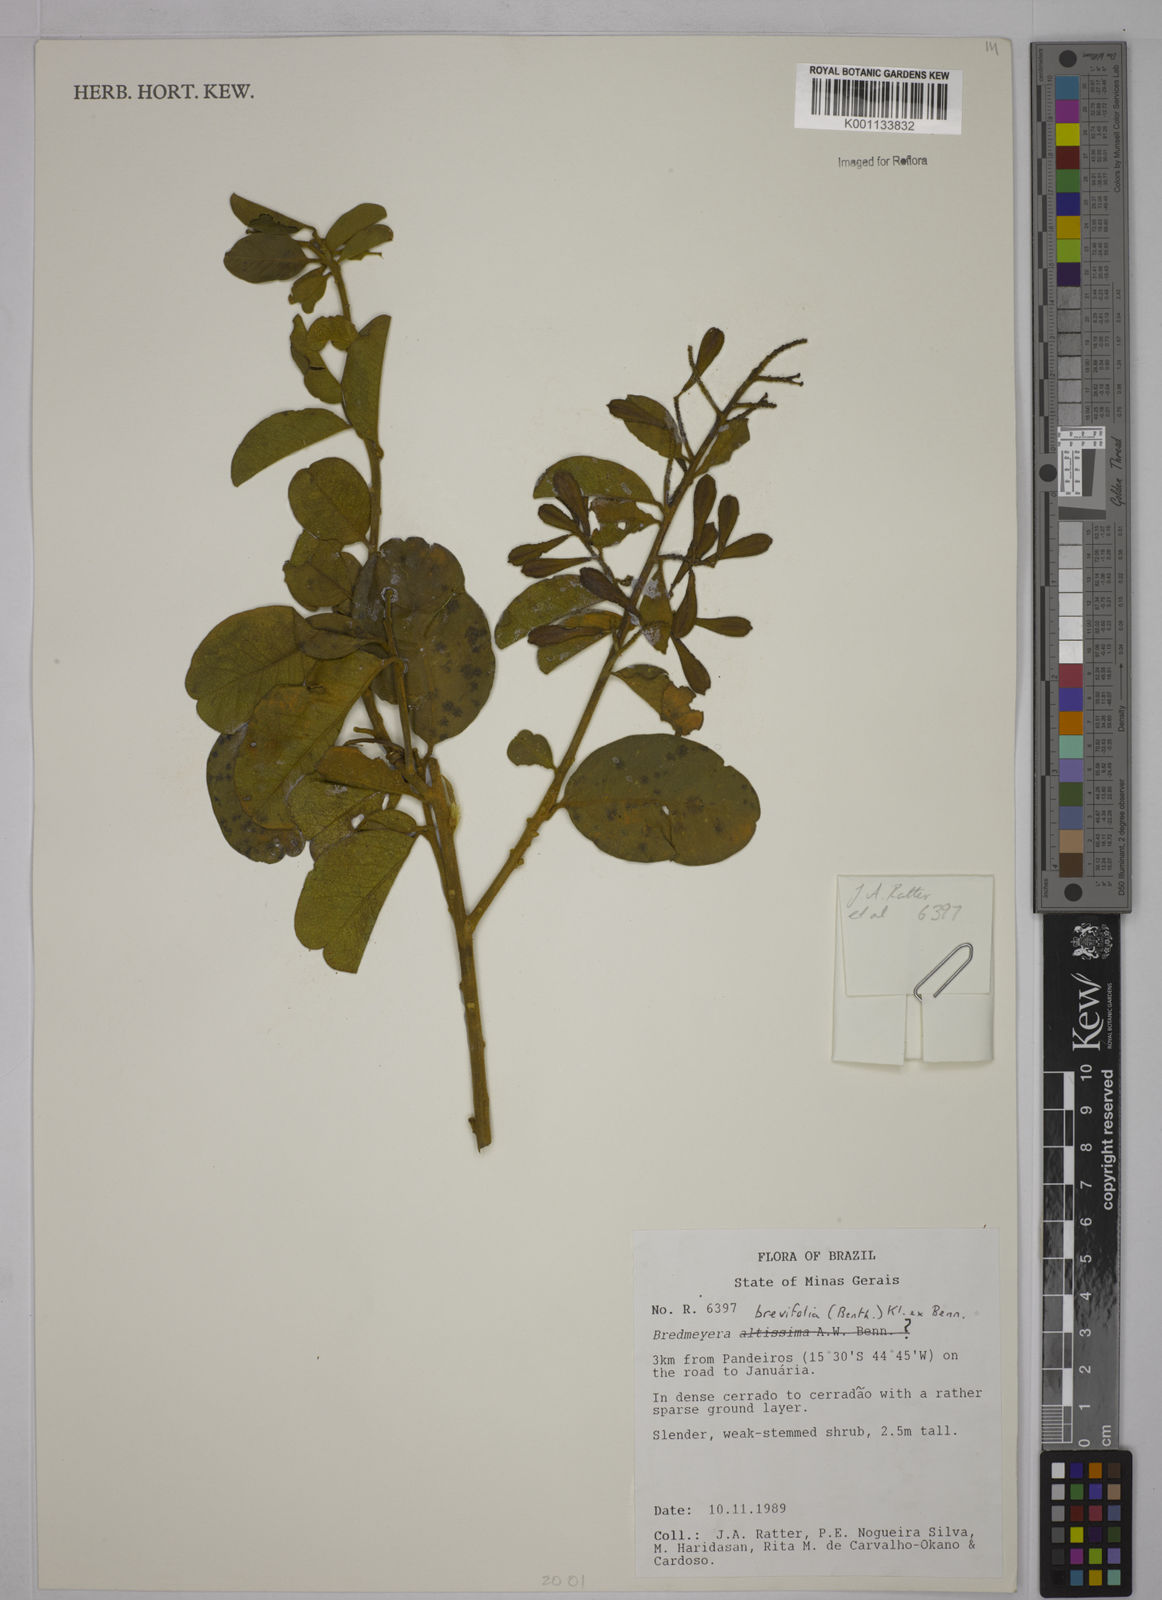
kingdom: Plantae
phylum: Tracheophyta
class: Magnoliopsida
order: Fabales
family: Polygalaceae
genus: Bredemeyera
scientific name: Bredemeyera brevifolia
